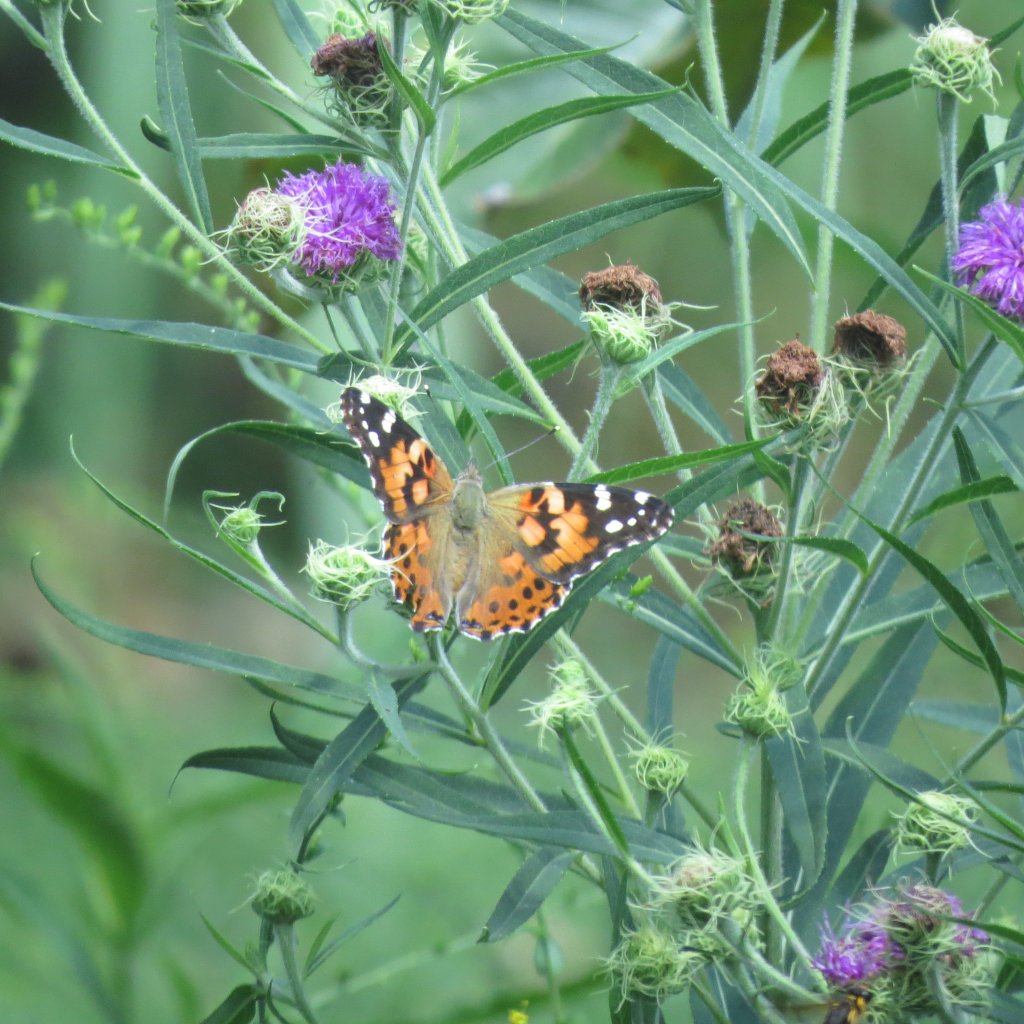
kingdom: Animalia
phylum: Arthropoda
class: Insecta
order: Lepidoptera
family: Nymphalidae
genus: Vanessa
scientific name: Vanessa cardui
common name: Painted Lady
